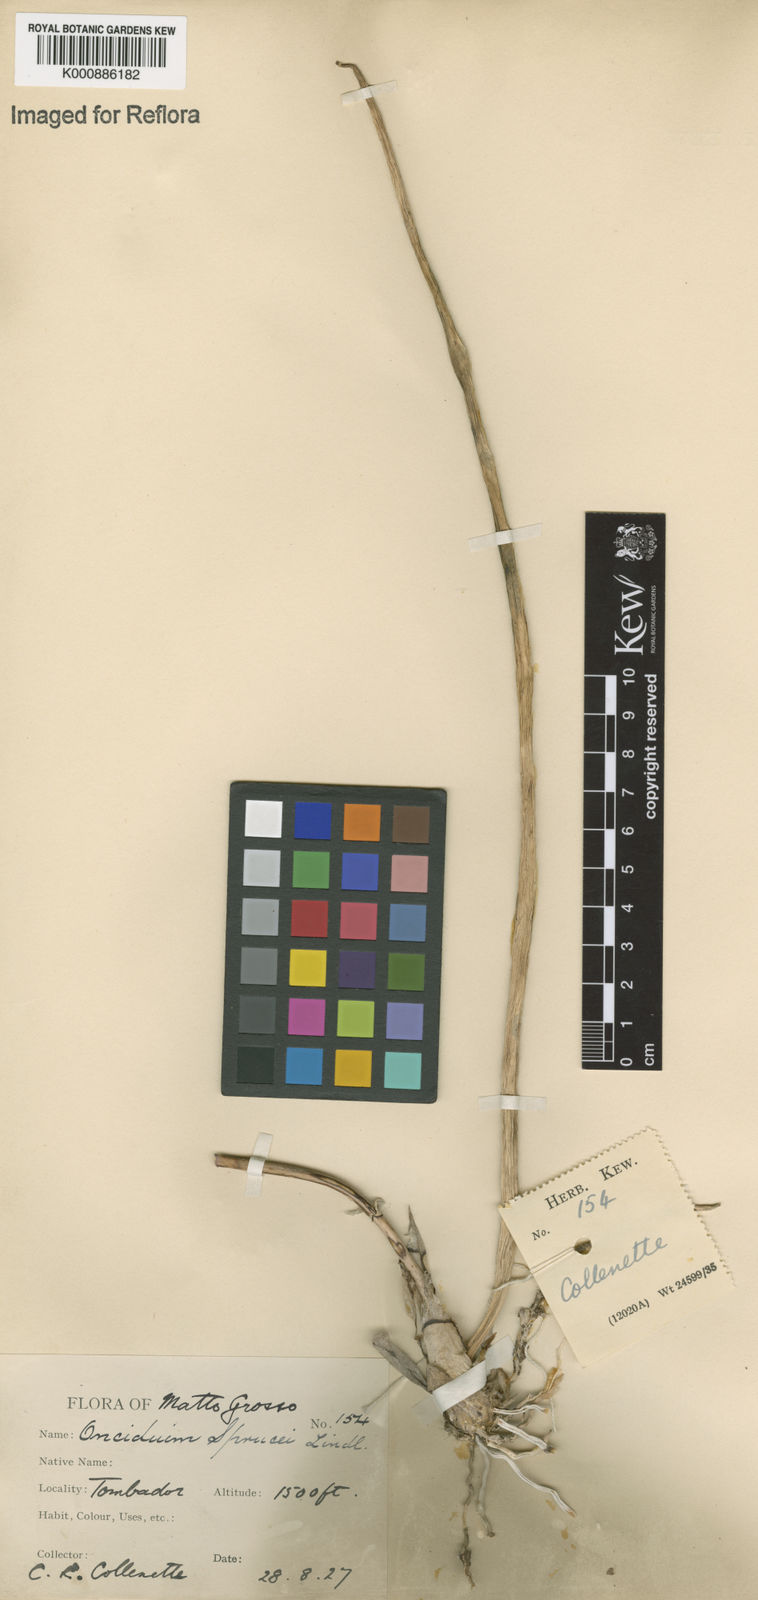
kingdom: Plantae
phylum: Tracheophyta
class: Liliopsida
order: Asparagales
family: Orchidaceae
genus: Trichocentrum
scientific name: Trichocentrum cebolleta
